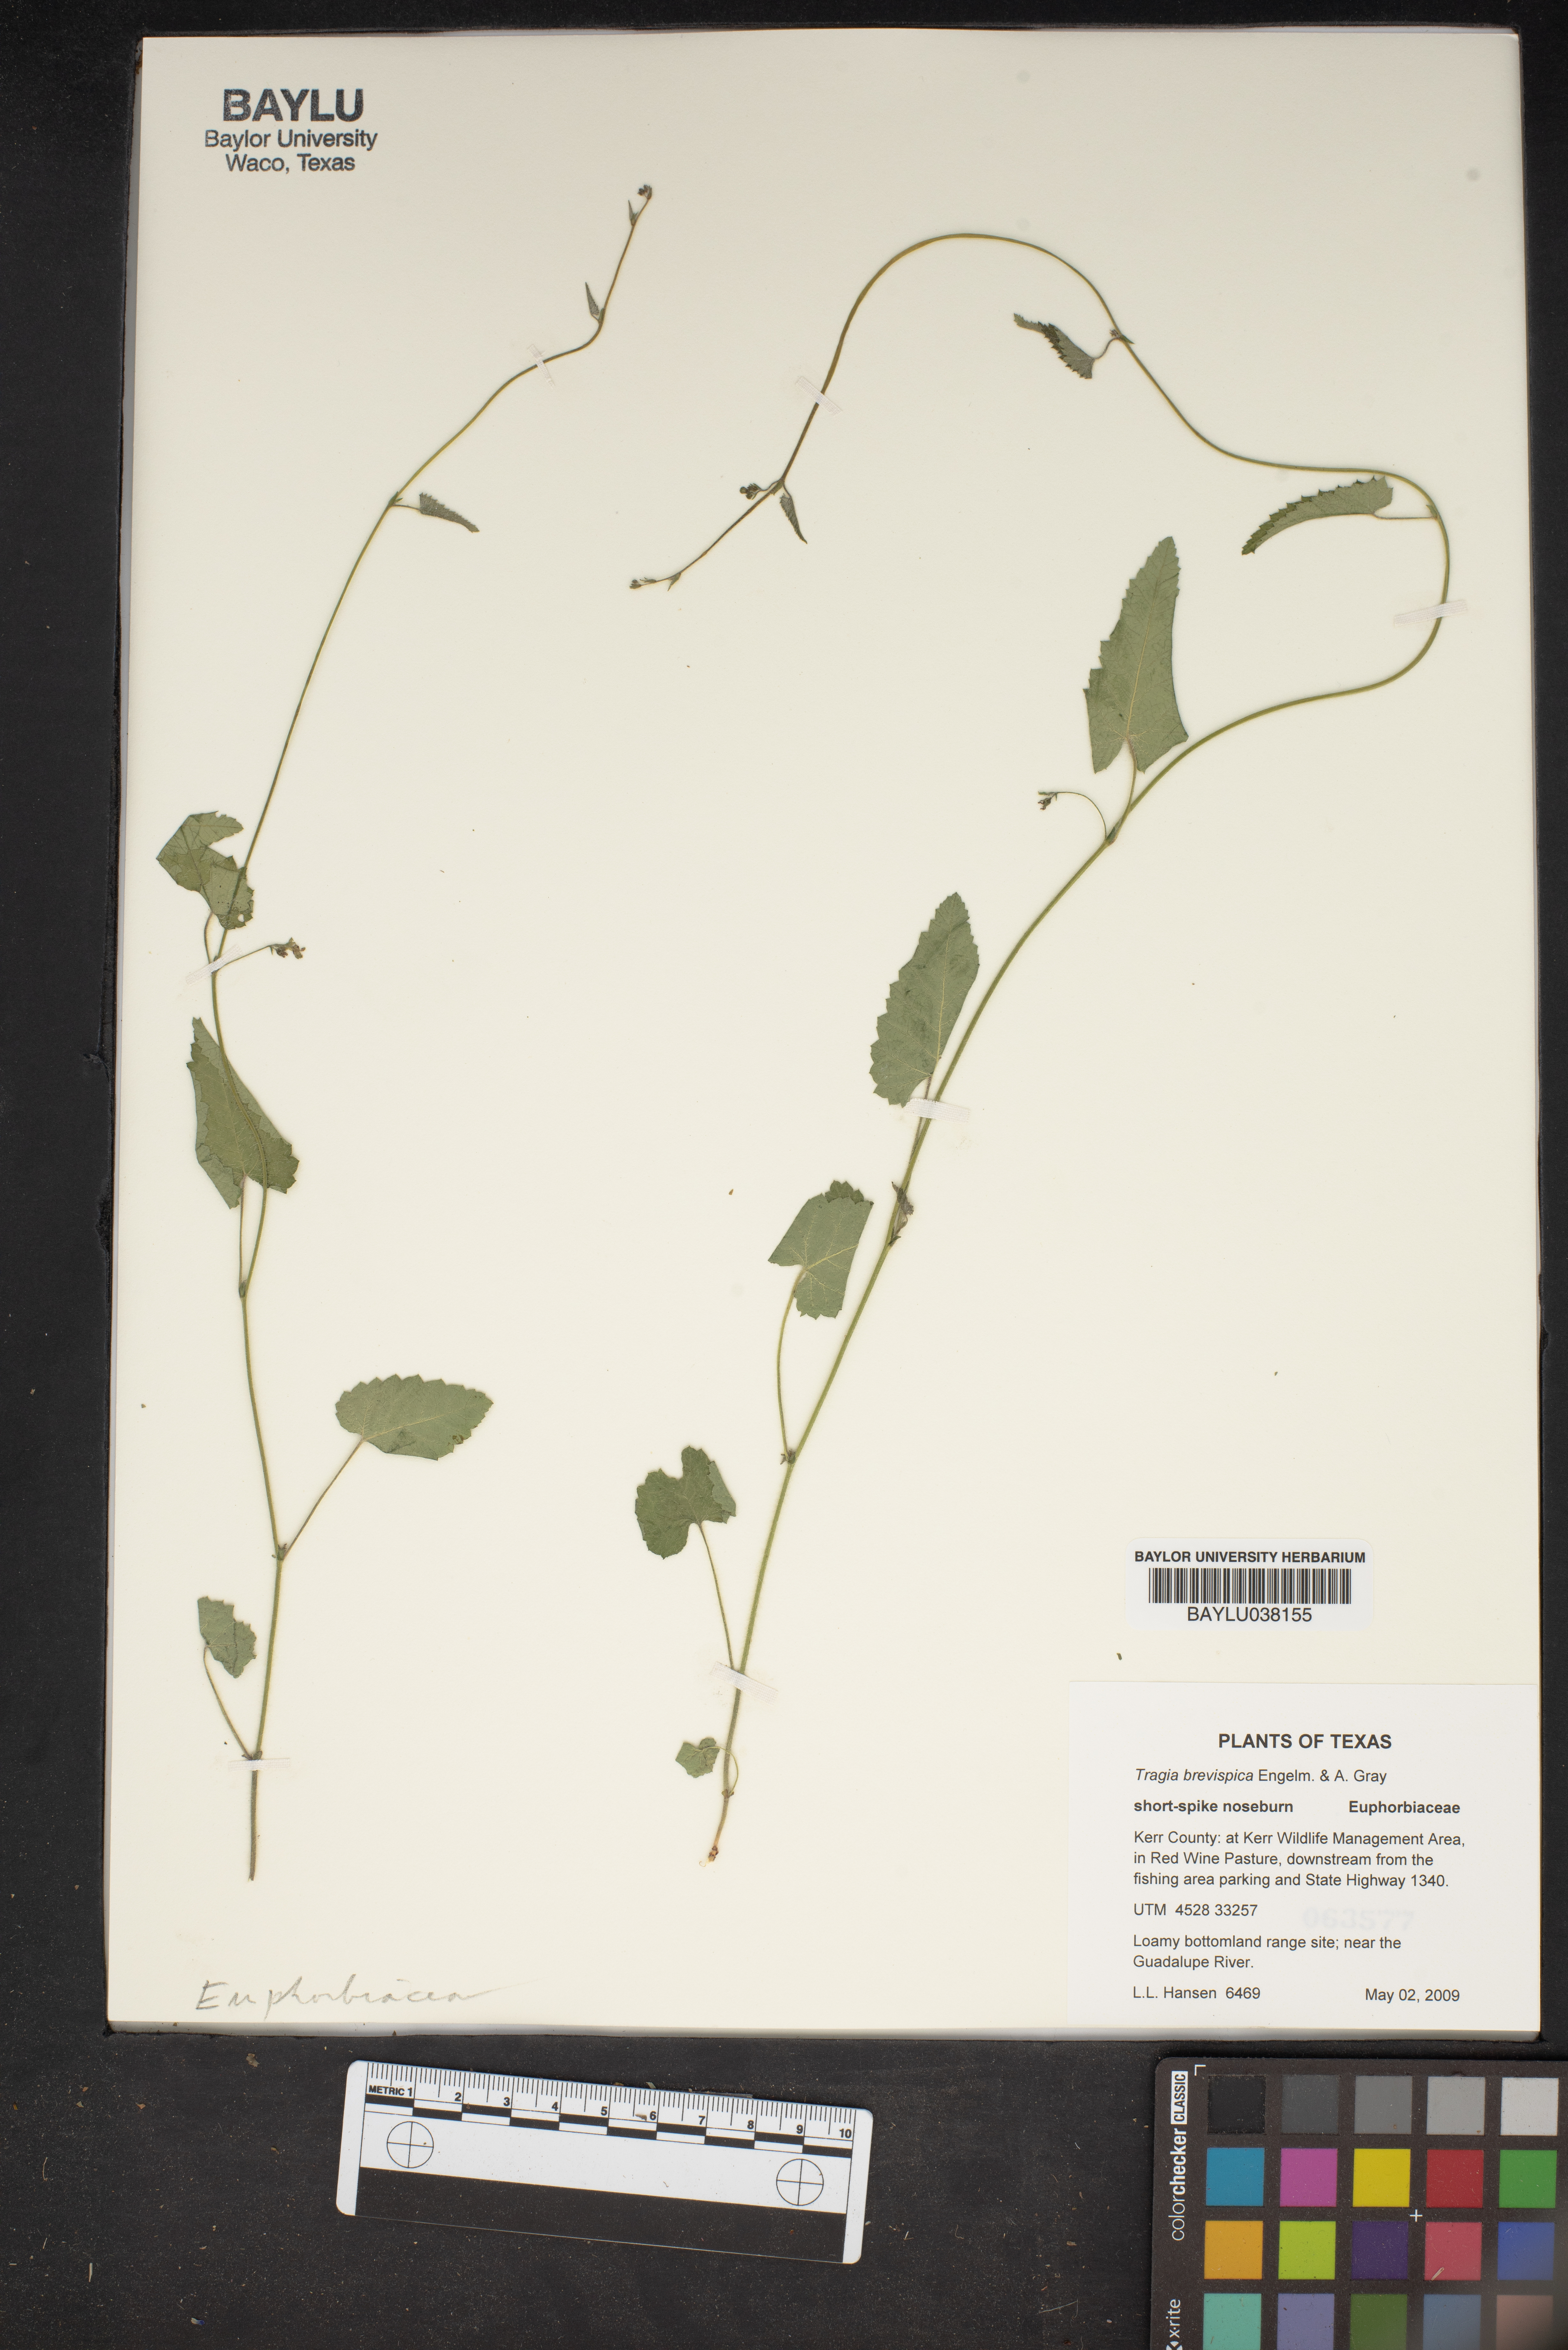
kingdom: Plantae
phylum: Tracheophyta
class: Magnoliopsida
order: Malpighiales
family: Euphorbiaceae
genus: Tragia
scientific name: Tragia brevispica
